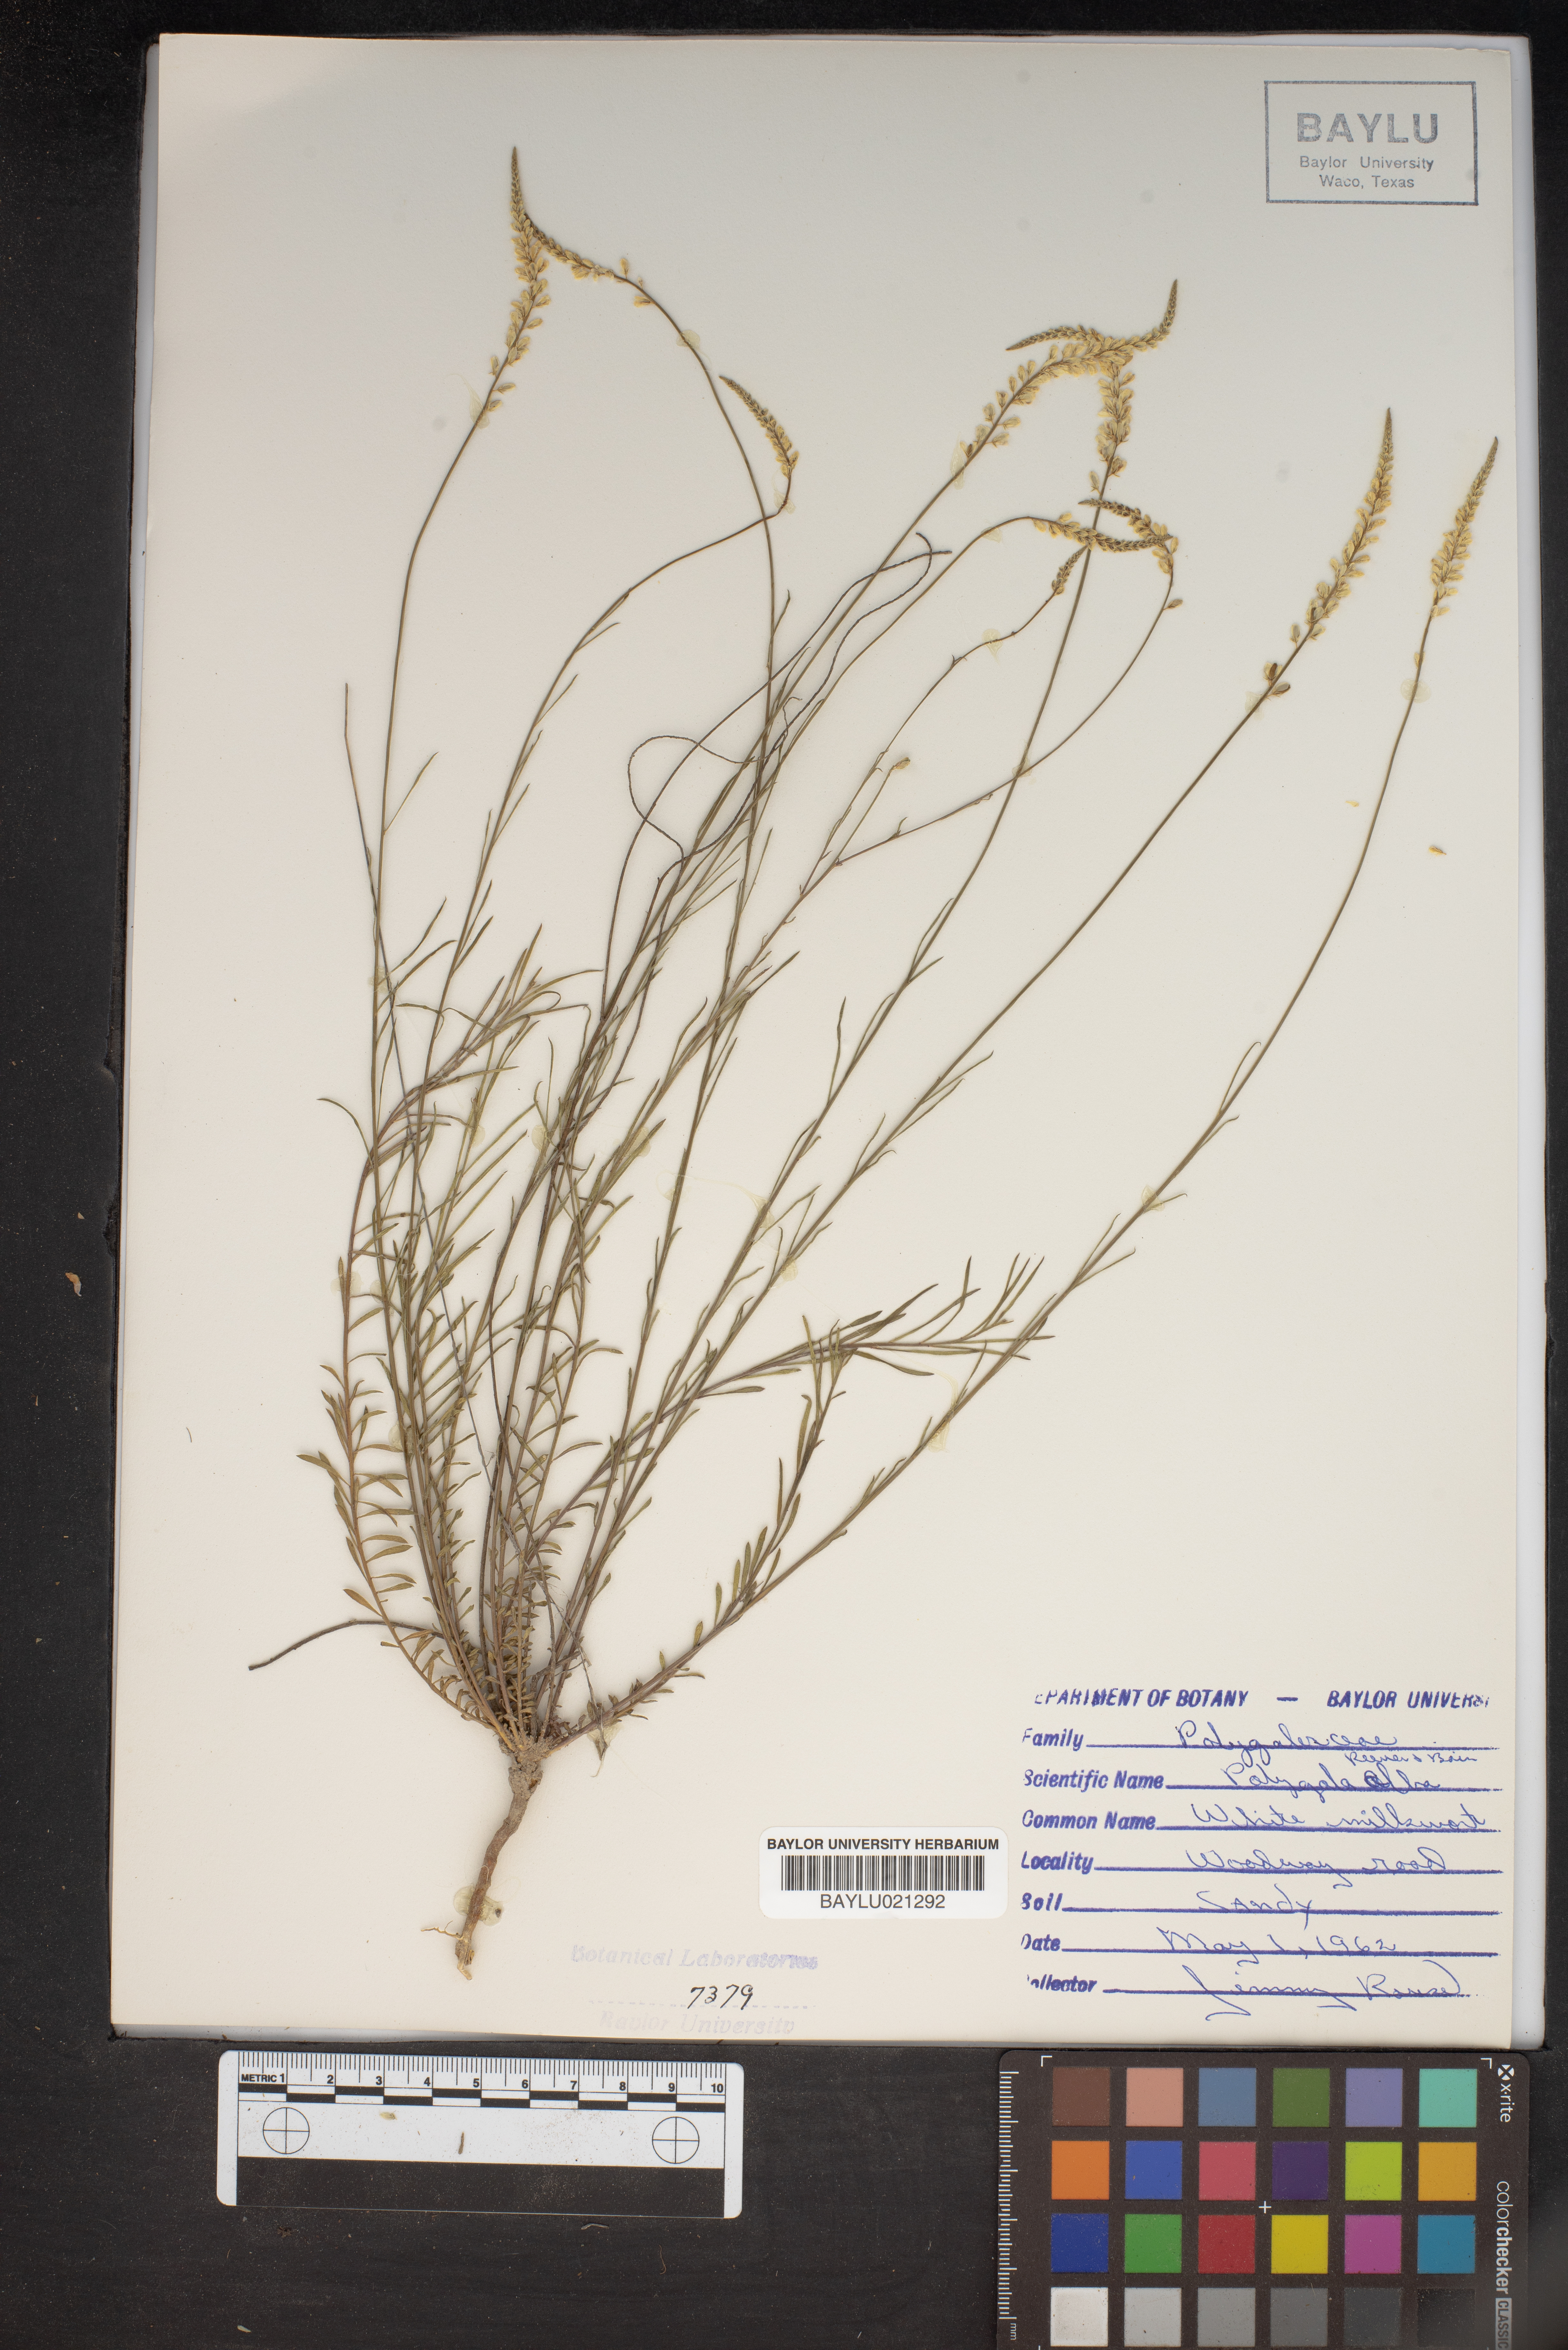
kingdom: Plantae
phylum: Tracheophyta
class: Magnoliopsida
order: Fabales
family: Polygalaceae
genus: Polygala
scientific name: Polygala alba
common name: White milkwort
